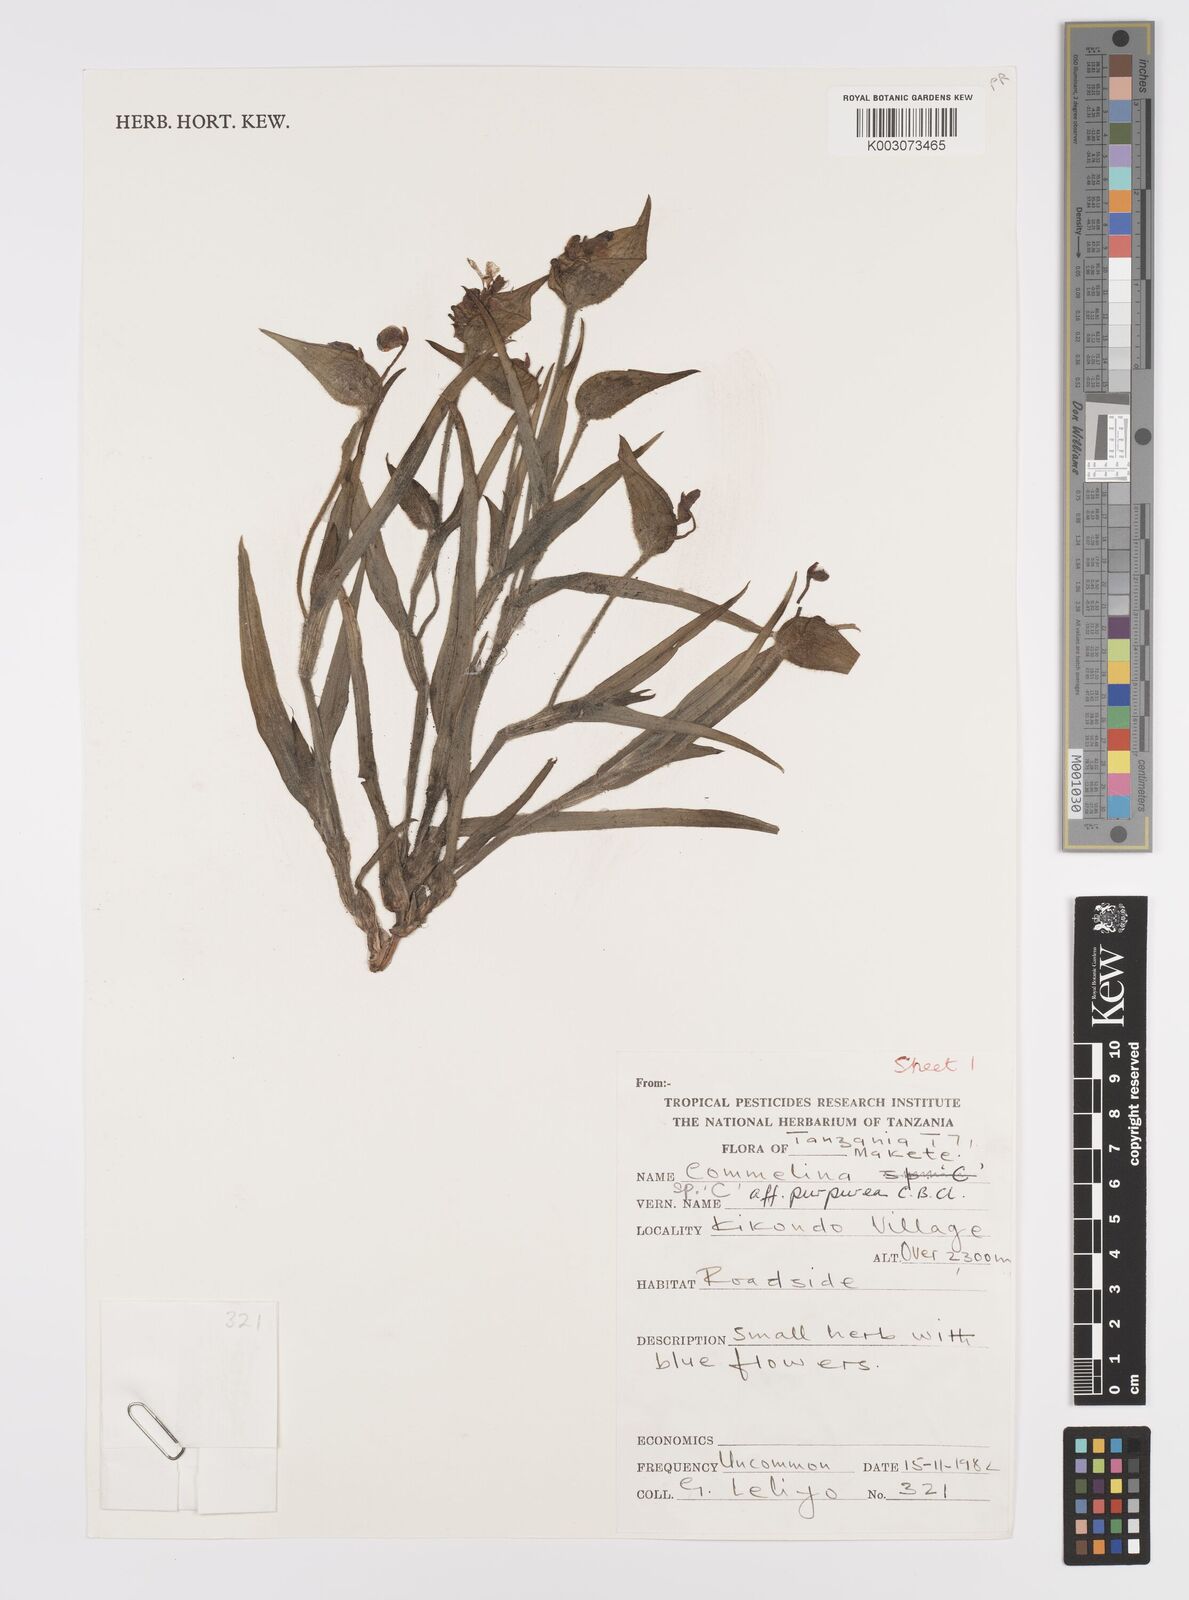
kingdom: Plantae
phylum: Tracheophyta
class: Liliopsida
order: Commelinales
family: Commelinaceae
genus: Commelina
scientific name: Commelina kituloensis
